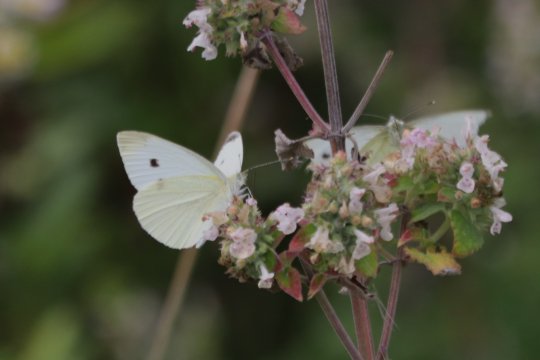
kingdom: Animalia
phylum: Arthropoda
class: Insecta
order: Lepidoptera
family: Pieridae
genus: Pieris
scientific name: Pieris rapae
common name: Cabbage White
